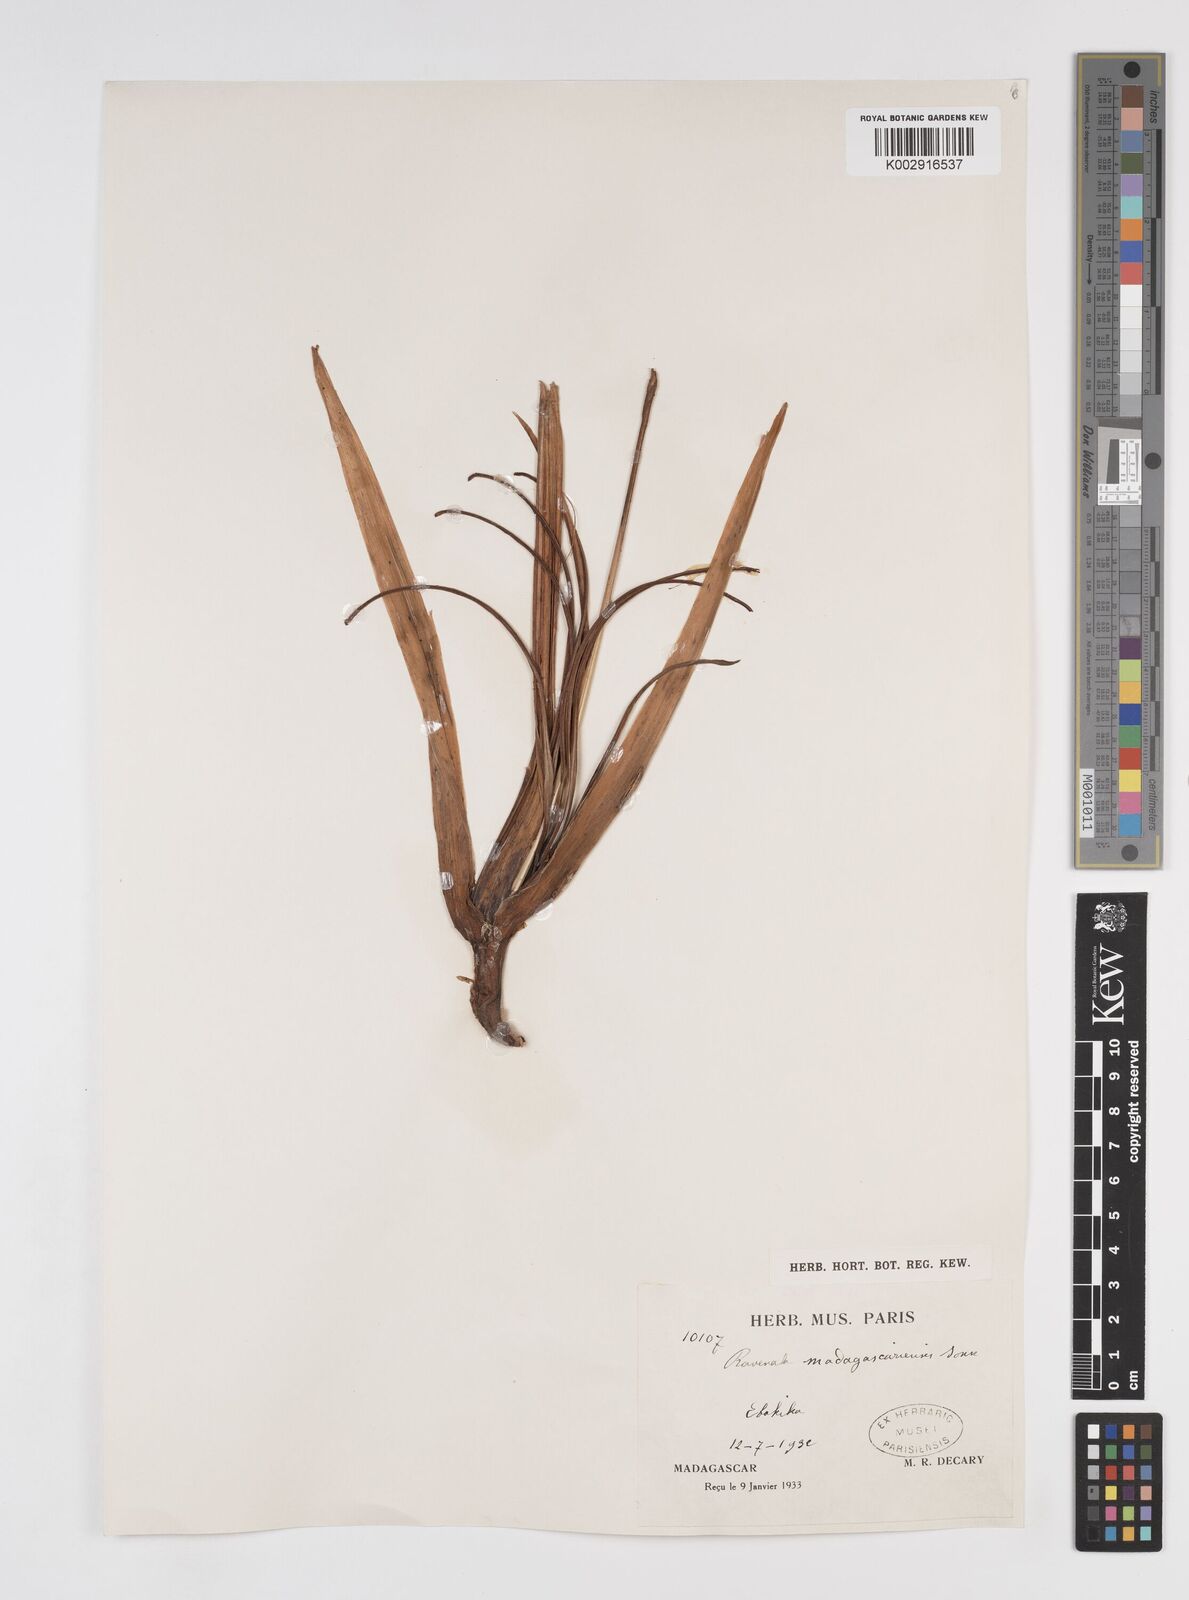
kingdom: Plantae
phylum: Tracheophyta
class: Liliopsida
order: Zingiberales
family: Strelitziaceae
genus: Ravenala
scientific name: Ravenala madagascariensis
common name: Traveler's-palm
